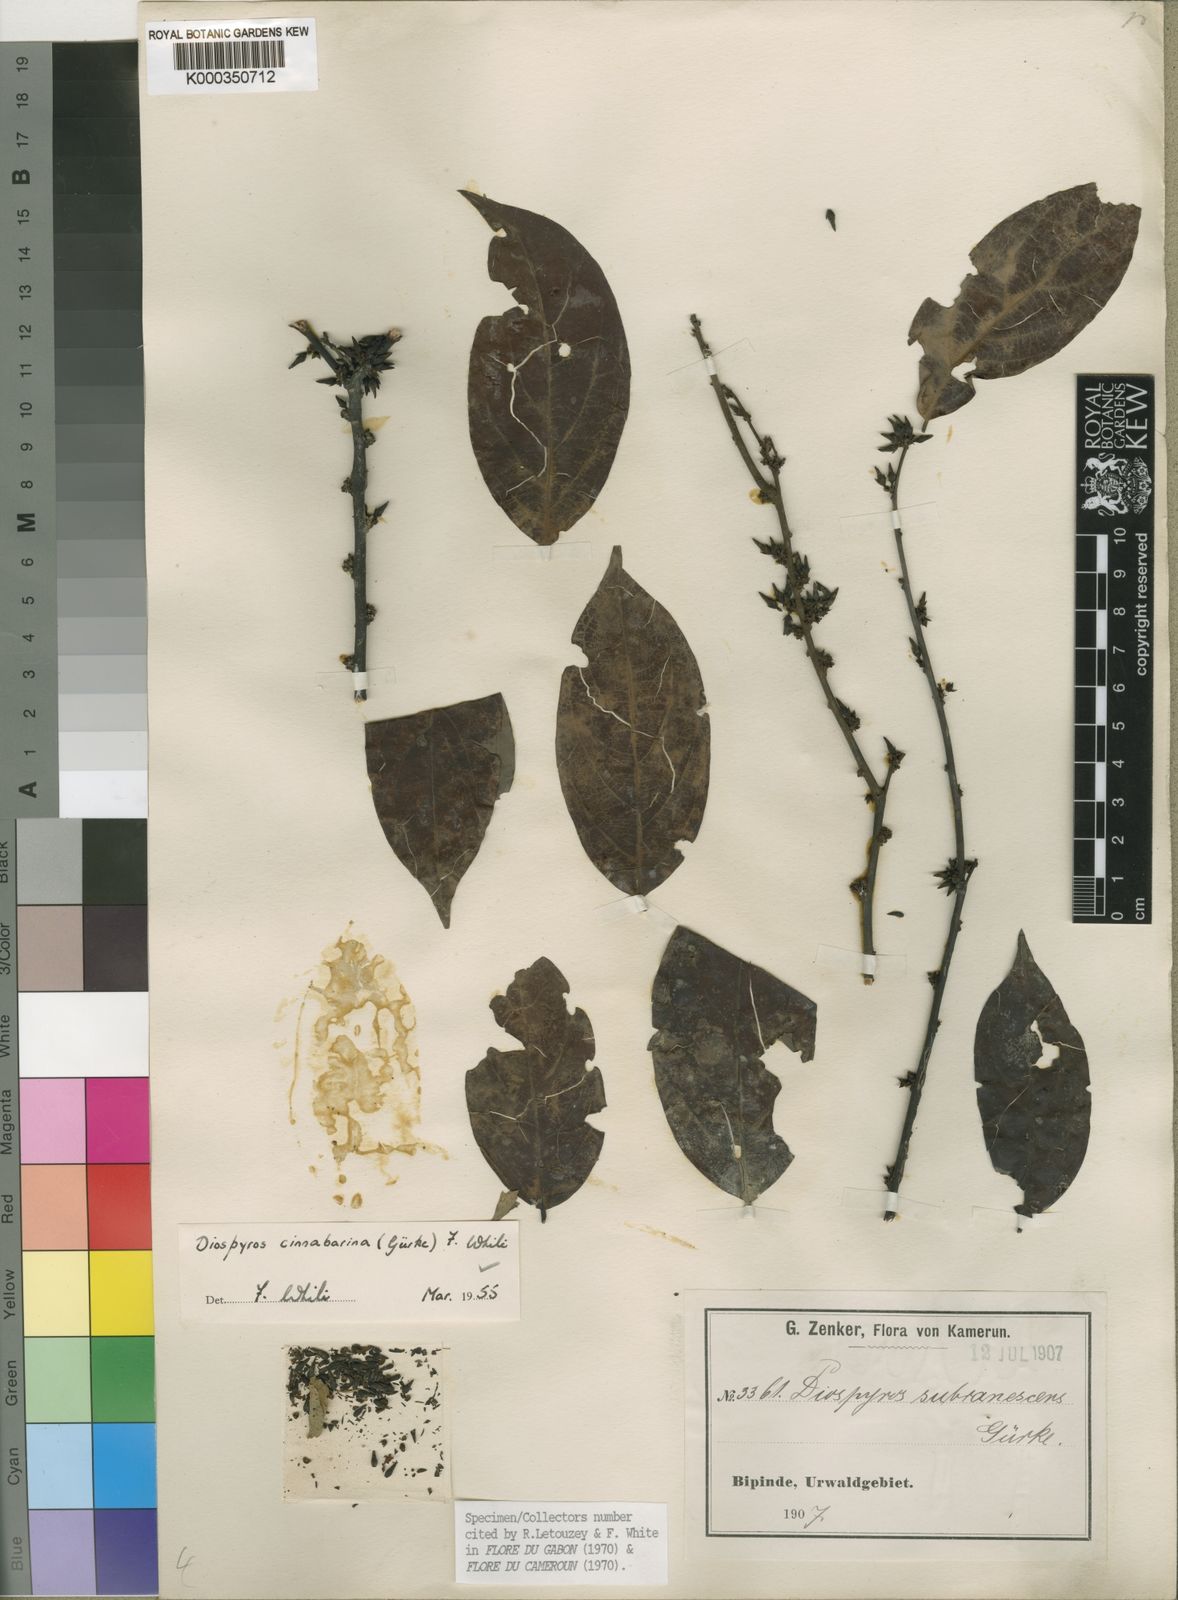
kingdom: Plantae
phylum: Tracheophyta
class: Magnoliopsida
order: Ericales
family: Ebenaceae
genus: Diospyros
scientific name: Diospyros
